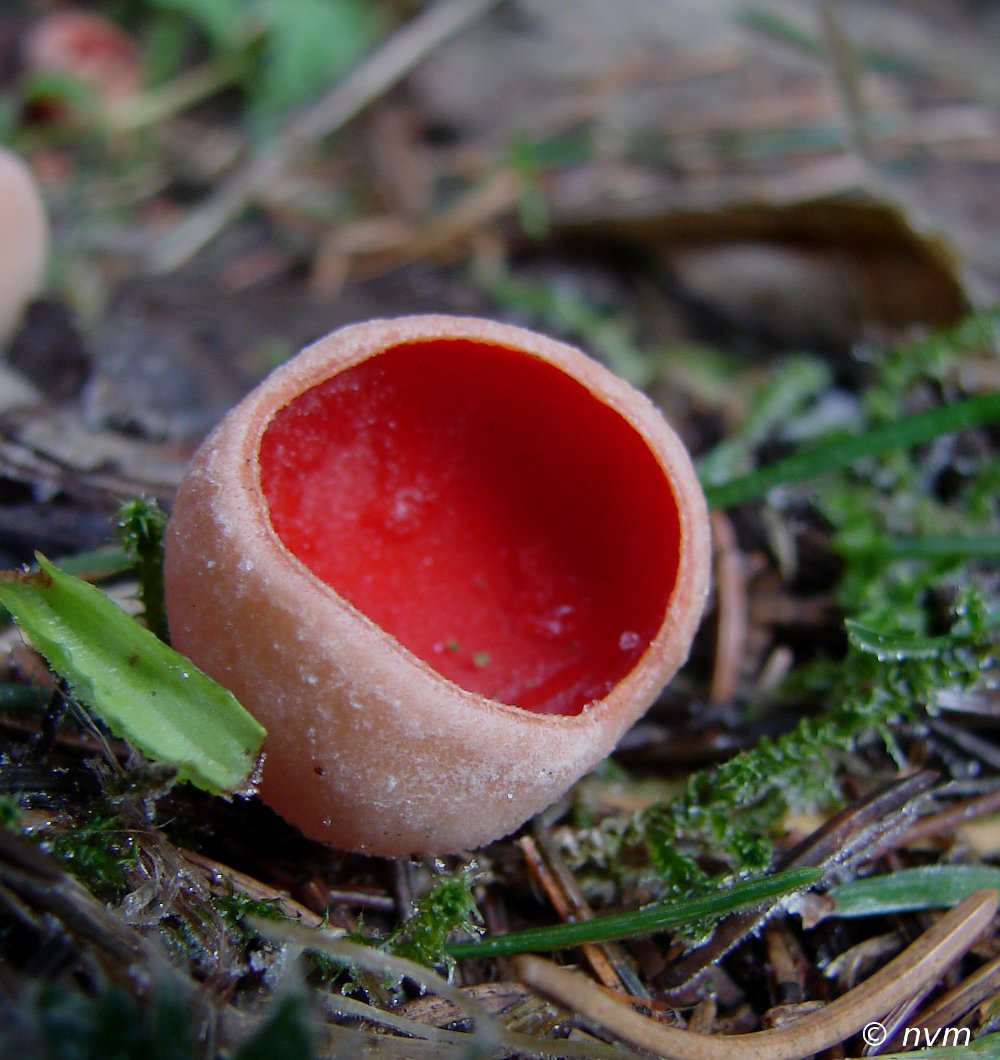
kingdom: Fungi
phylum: Ascomycota
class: Pezizomycetes
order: Pezizales
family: Sarcoscyphaceae
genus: Sarcoscypha
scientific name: Sarcoscypha
